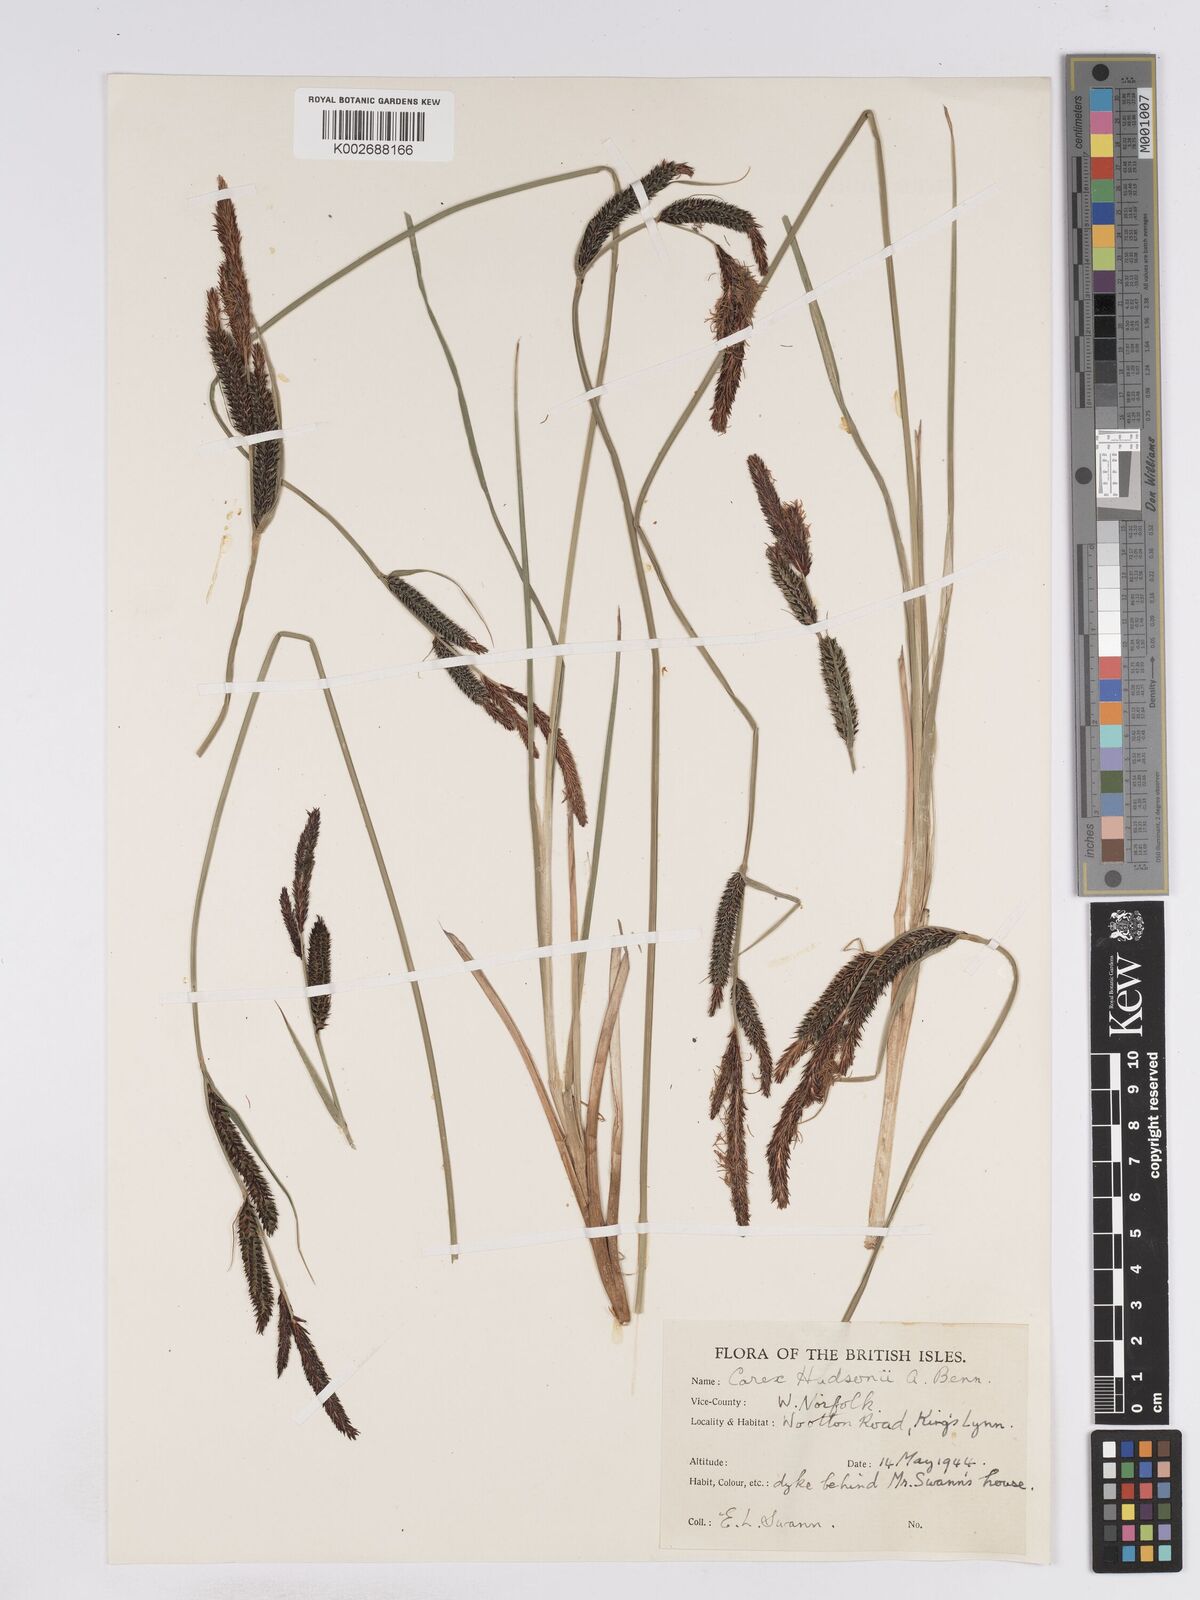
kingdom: Plantae
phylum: Tracheophyta
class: Liliopsida
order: Poales
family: Cyperaceae
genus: Carex
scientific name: Carex elata
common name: Tufted sedge
